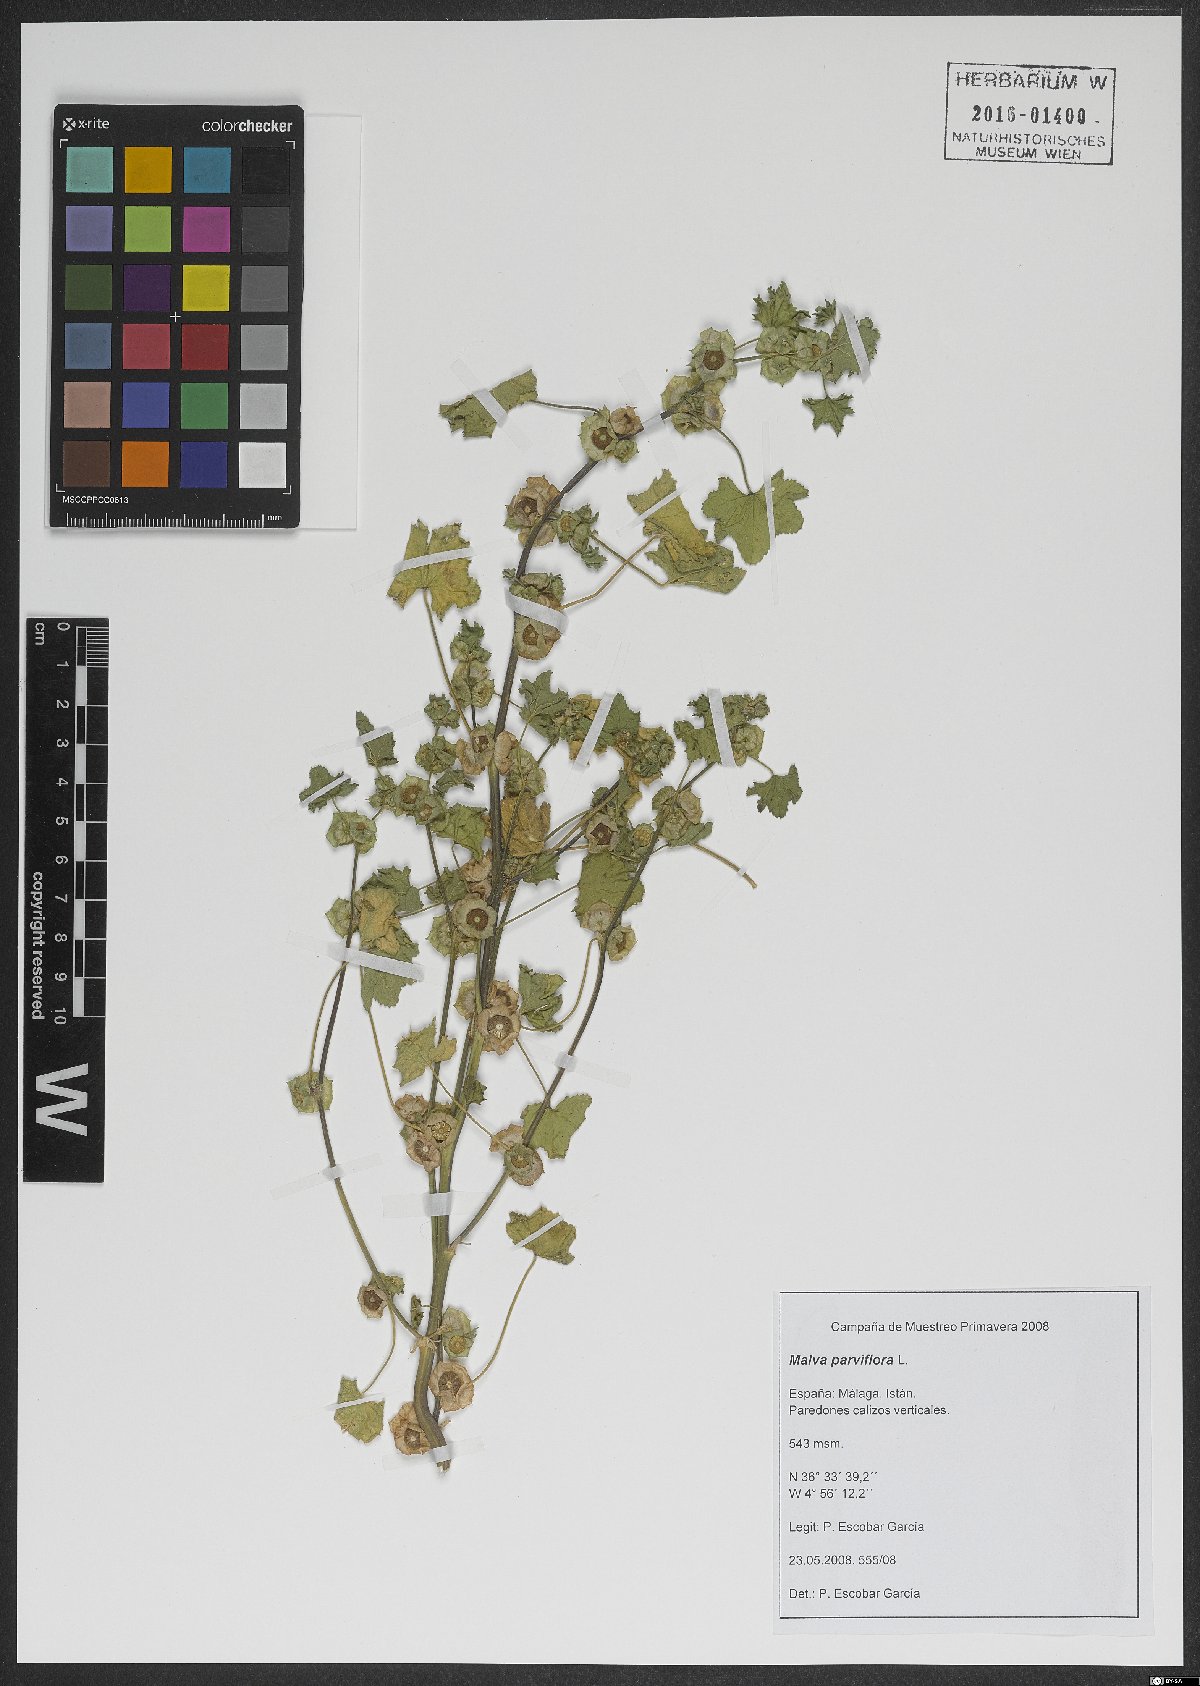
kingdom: Plantae
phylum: Tracheophyta
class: Magnoliopsida
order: Malvales
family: Malvaceae
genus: Malva
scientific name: Malva parviflora
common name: Least mallow
